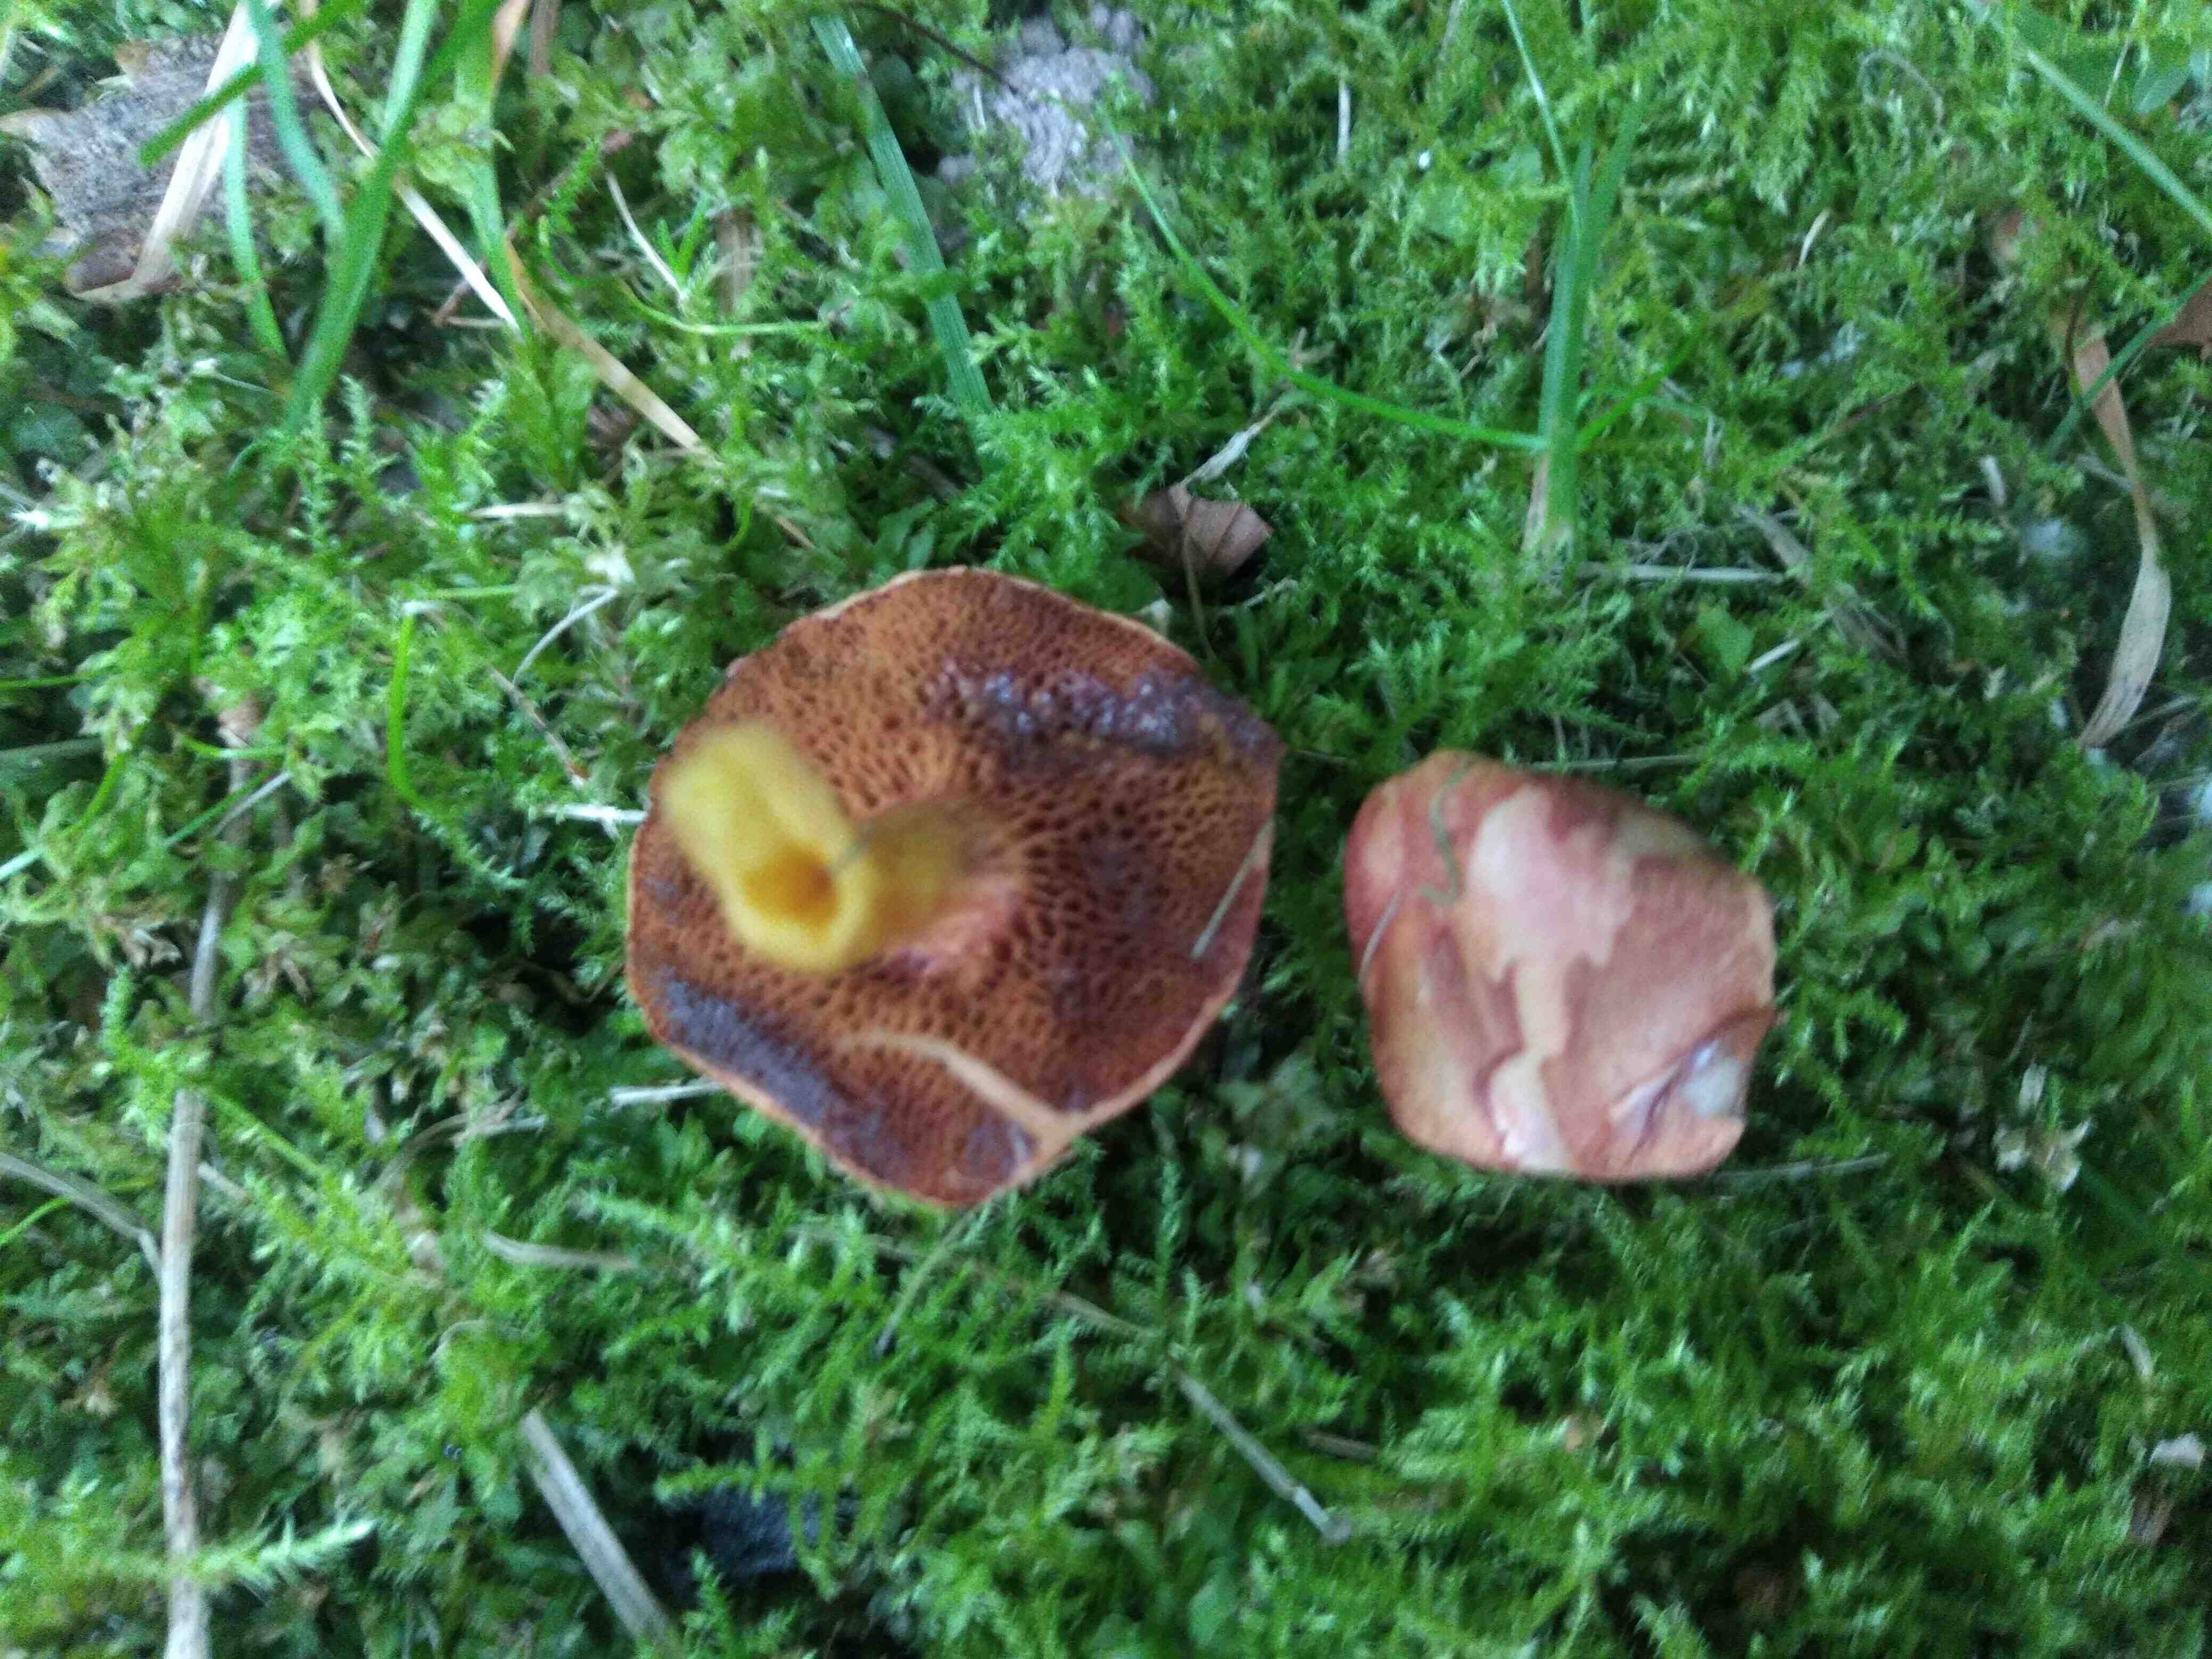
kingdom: Fungi
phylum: Basidiomycota
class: Agaricomycetes
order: Boletales
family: Boletaceae
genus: Chalciporus
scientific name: Chalciporus piperatus
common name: peberrørhat
